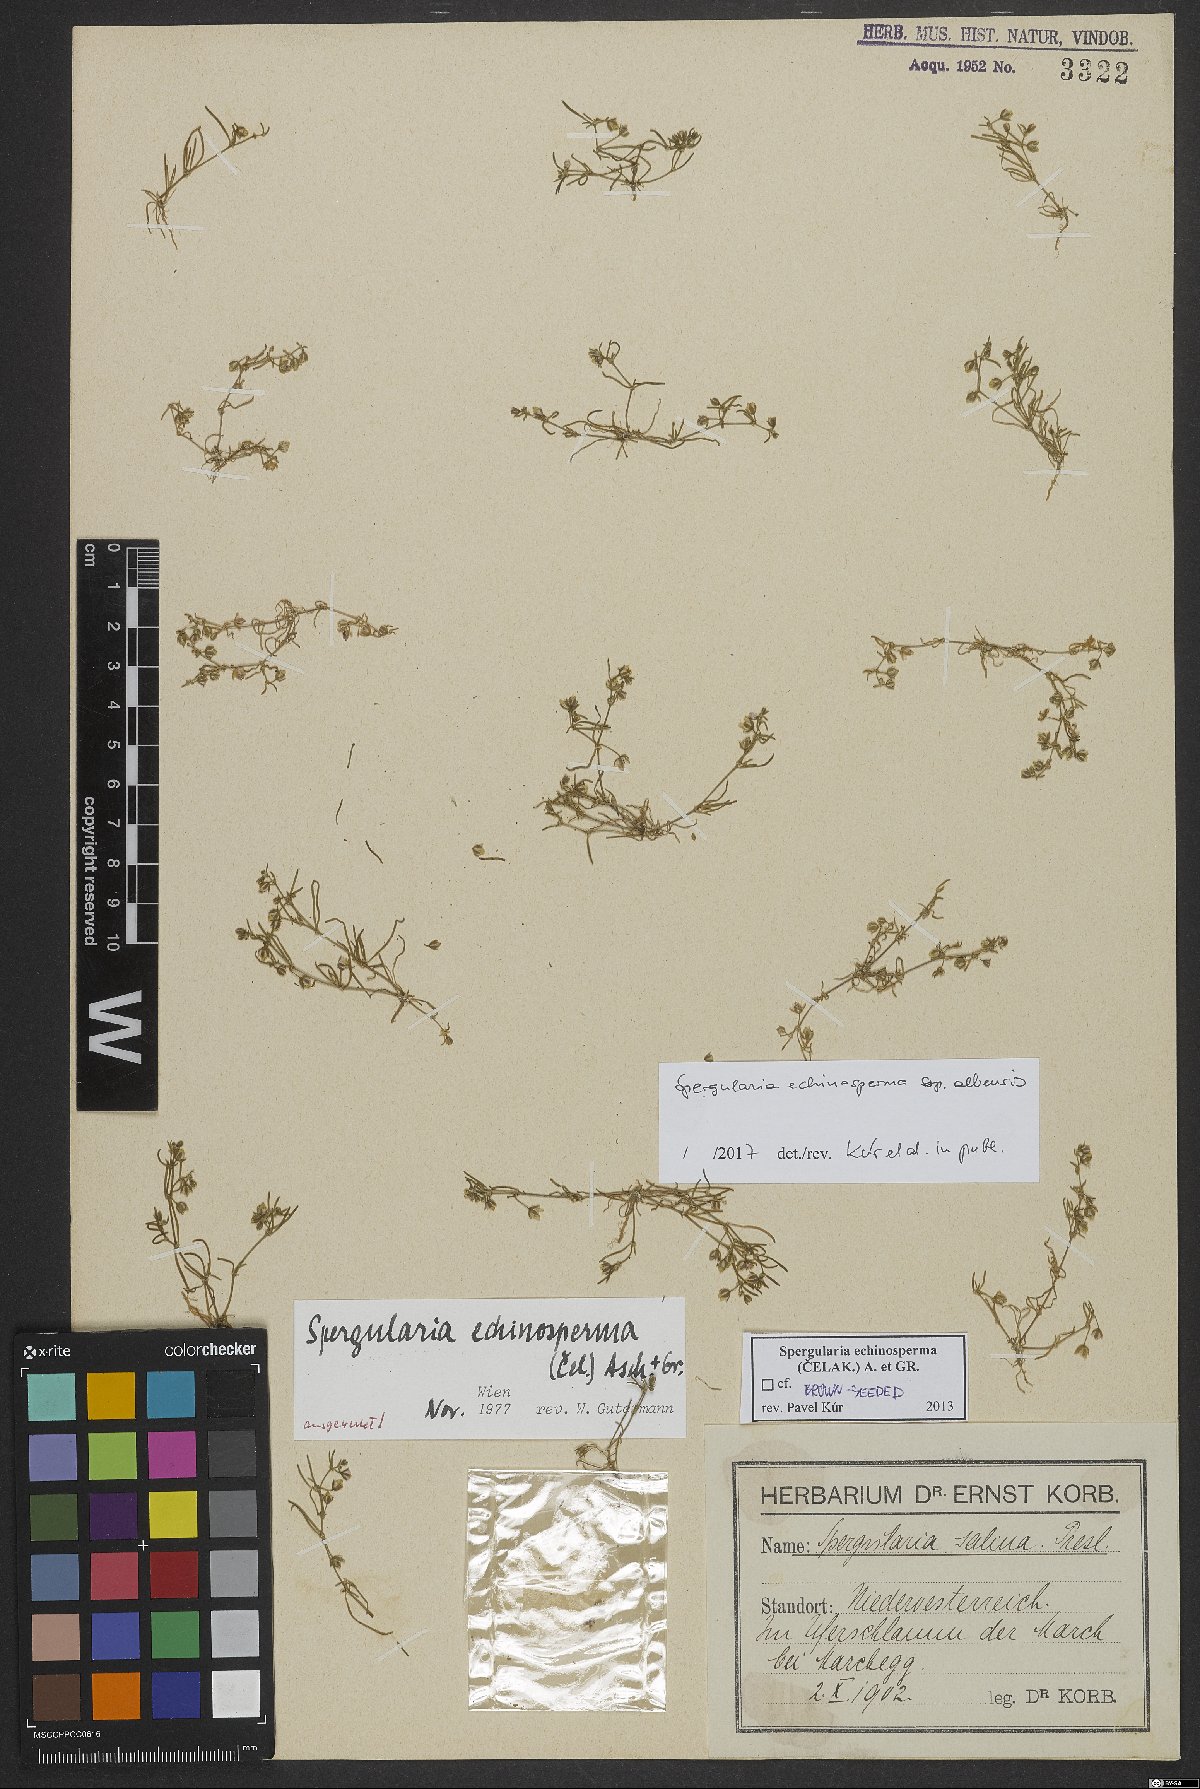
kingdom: Plantae
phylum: Tracheophyta
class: Magnoliopsida
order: Caryophyllales
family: Caryophyllaceae
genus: Spergularia
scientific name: Spergularia echinosperma
